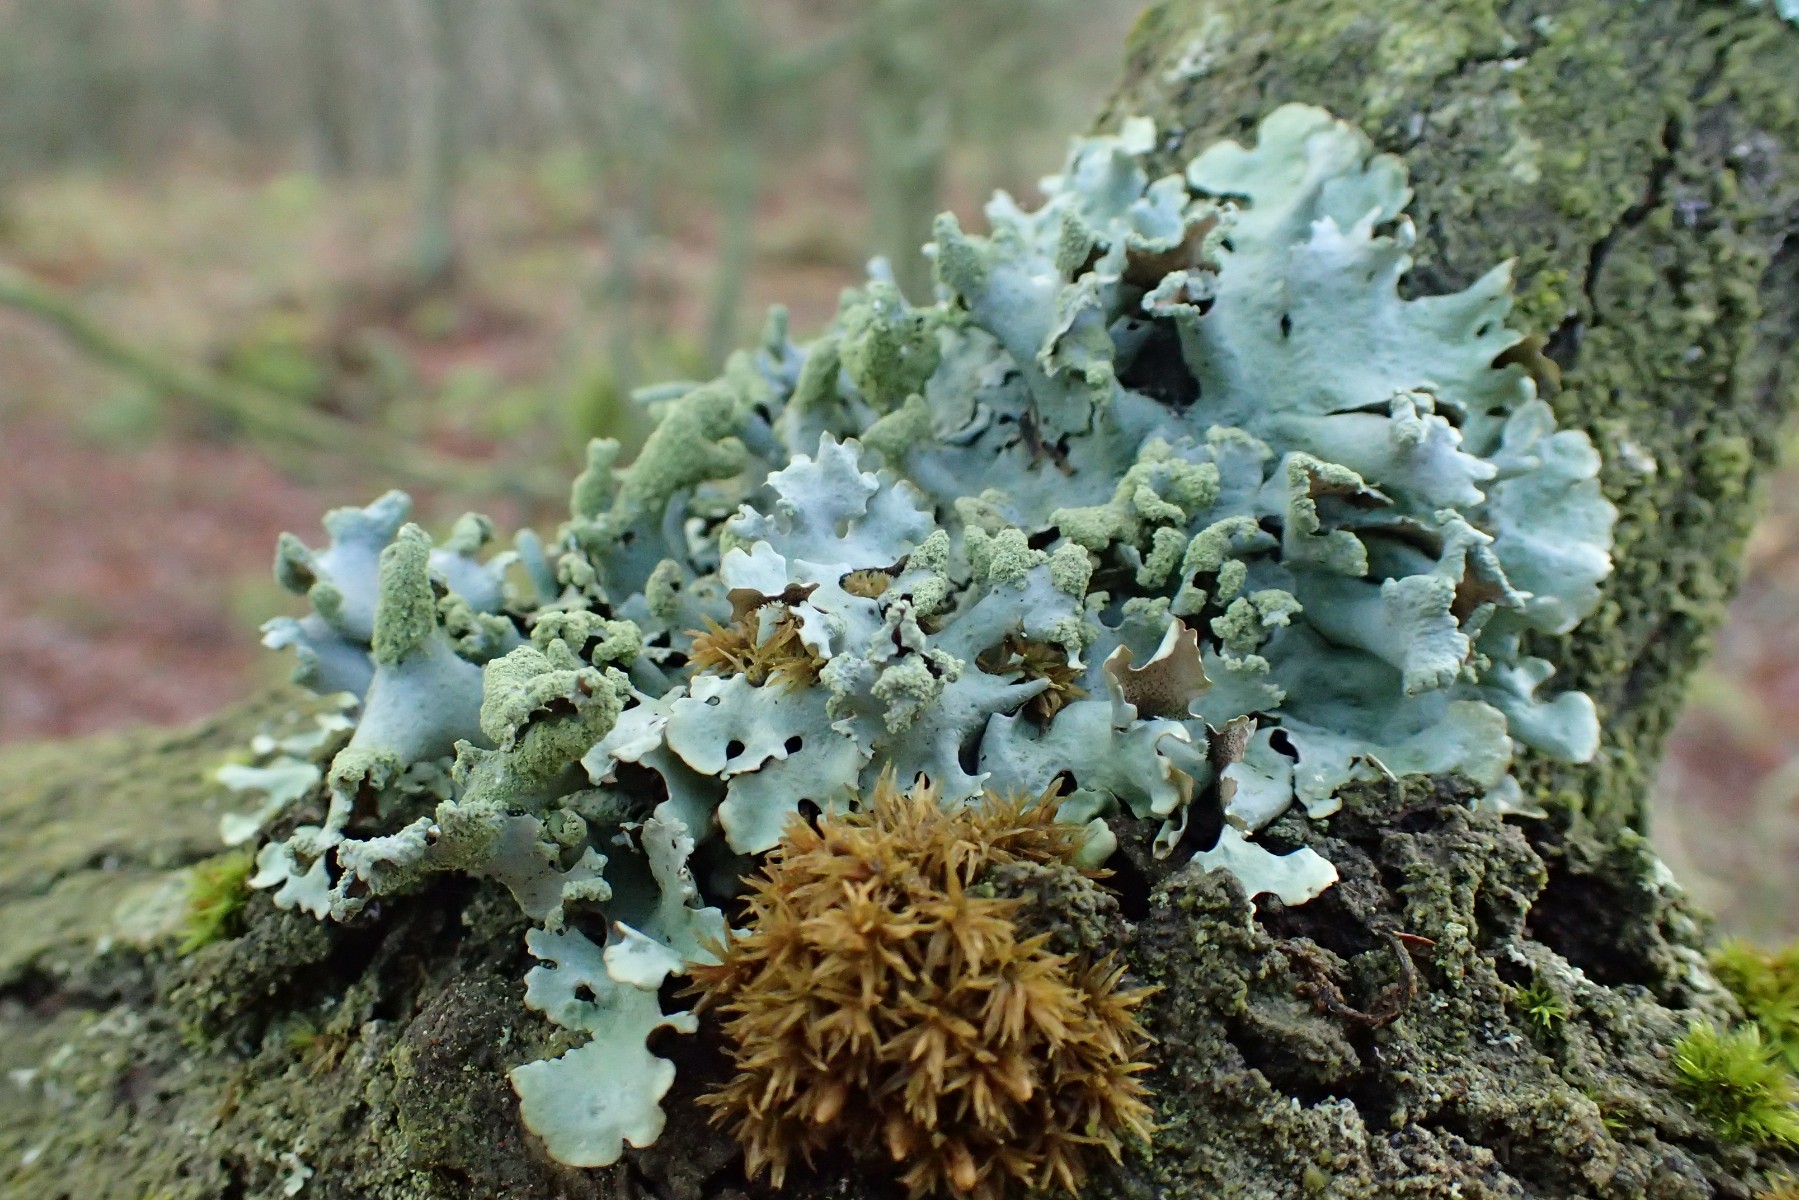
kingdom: Fungi
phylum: Ascomycota
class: Lecanoromycetes
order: Lecanorales
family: Parmeliaceae
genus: Hypotrachyna
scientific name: Hypotrachyna revoluta
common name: bleggrå skållav
